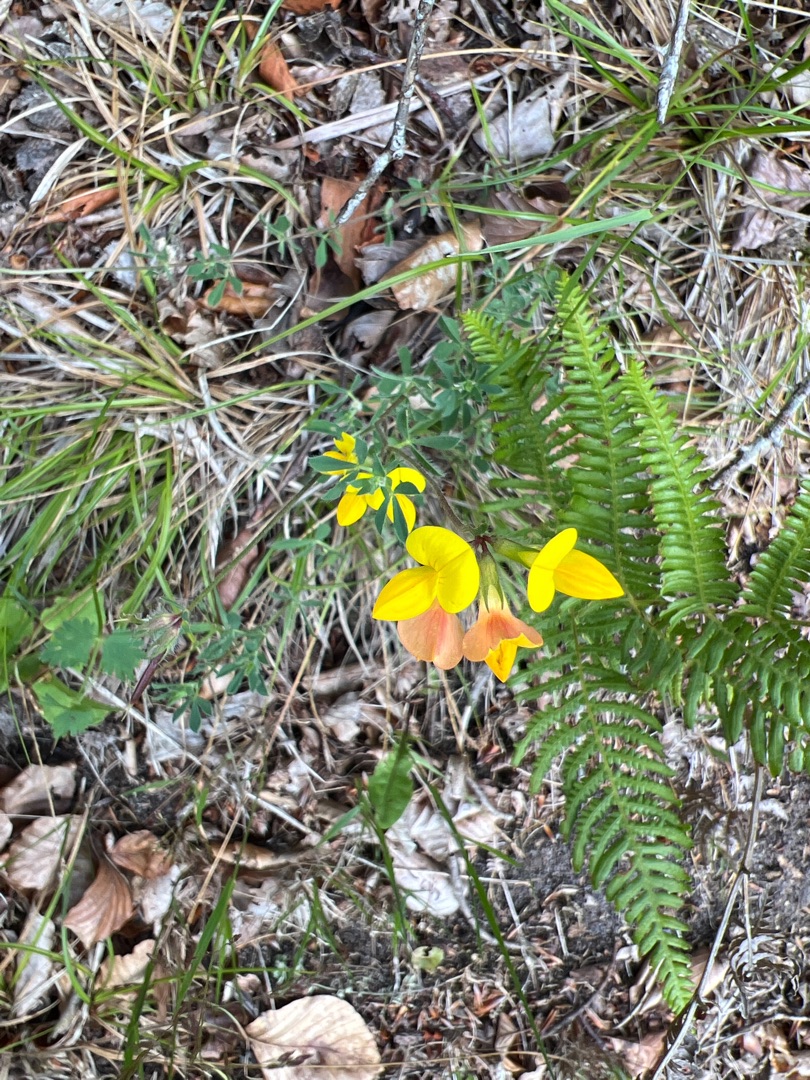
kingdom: Plantae
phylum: Tracheophyta
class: Magnoliopsida
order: Fabales
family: Fabaceae
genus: Lotus
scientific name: Lotus corniculatus
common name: Almindelig kællingetand
